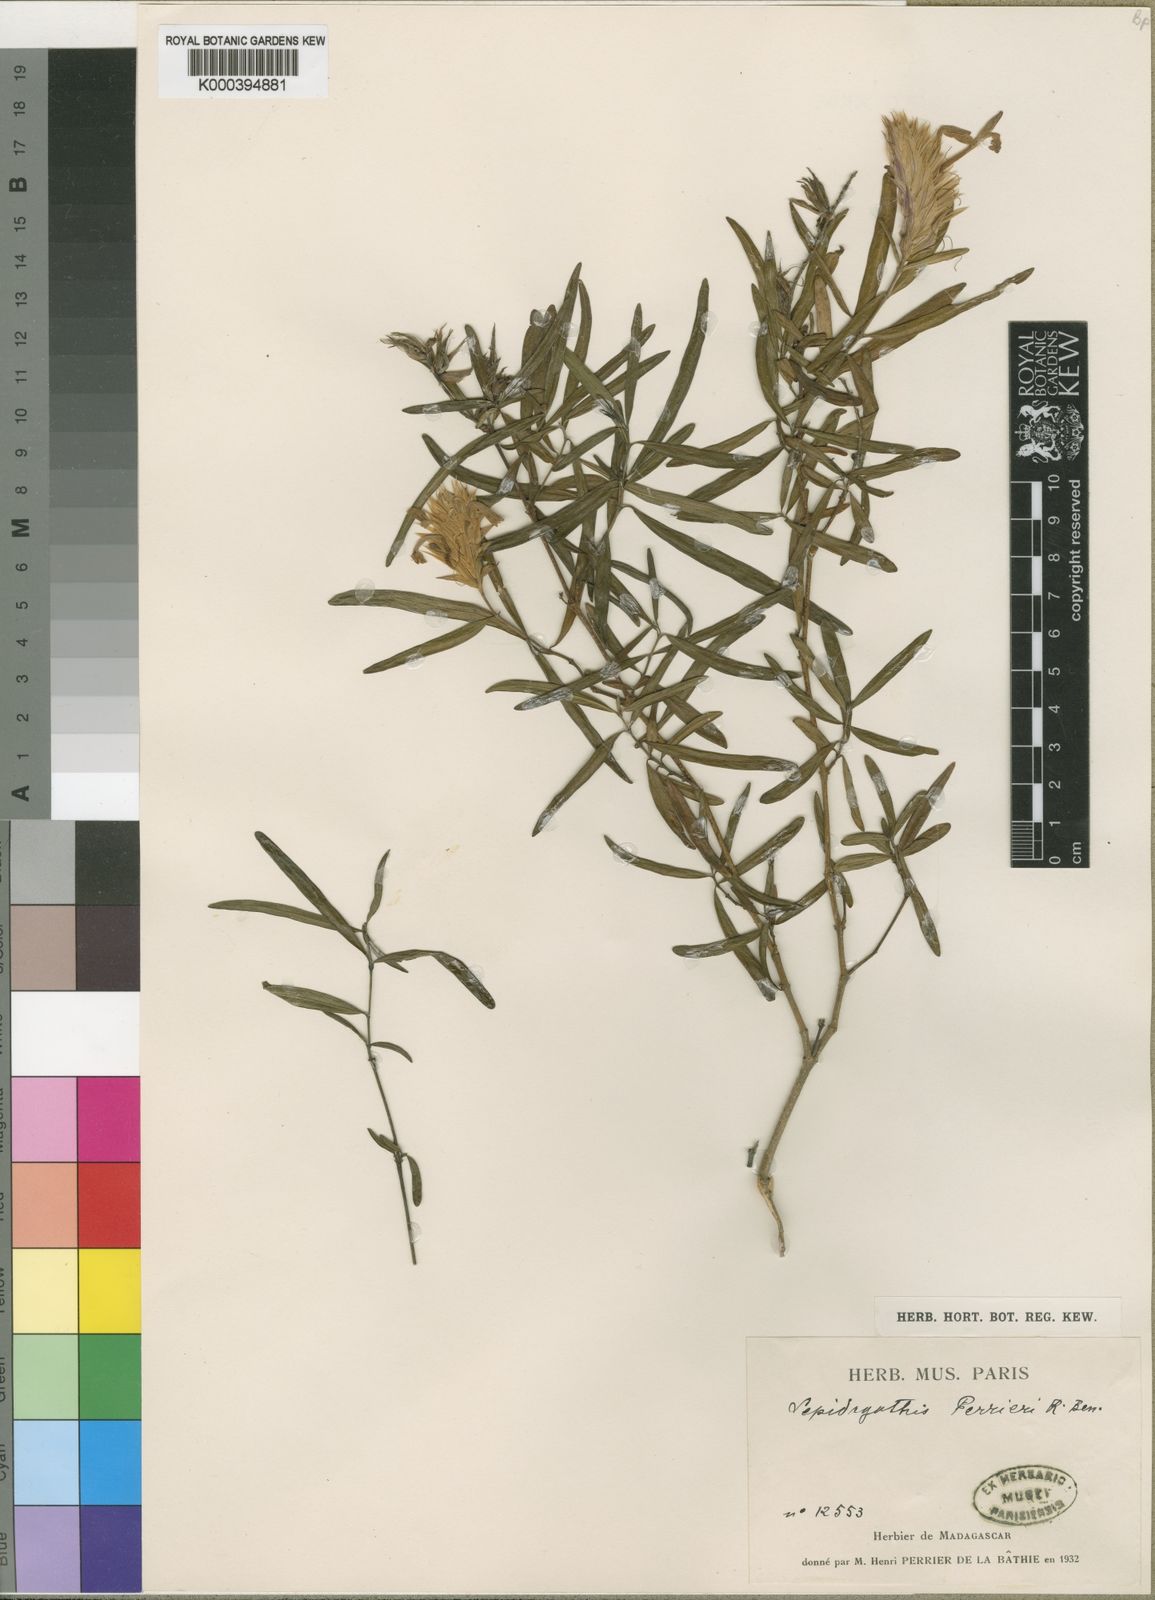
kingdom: Plantae
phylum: Tracheophyta
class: Magnoliopsida
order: Lamiales
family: Acanthaceae
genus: Lepidagathis
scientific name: Lepidagathis perrieri
